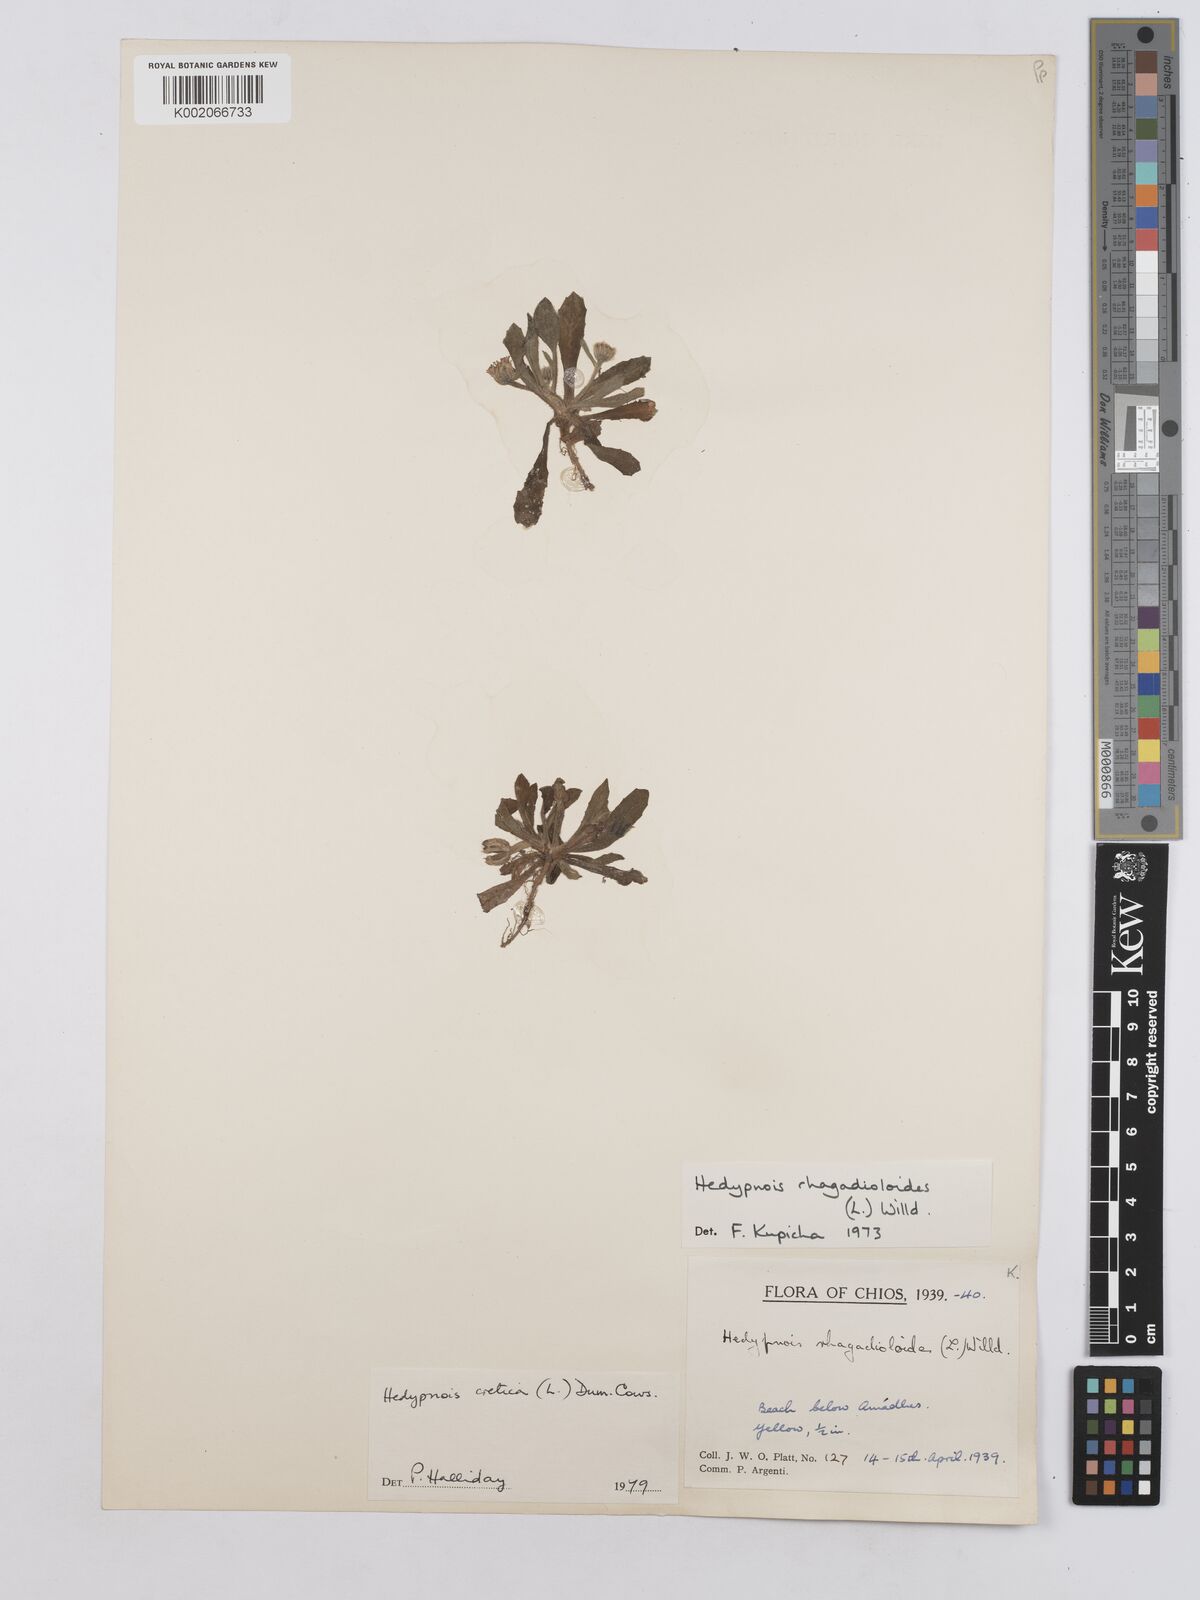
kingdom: Plantae
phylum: Tracheophyta
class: Magnoliopsida
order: Asterales
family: Asteraceae
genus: Hedypnois
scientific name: Hedypnois cretica
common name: Scaly hawkbit
